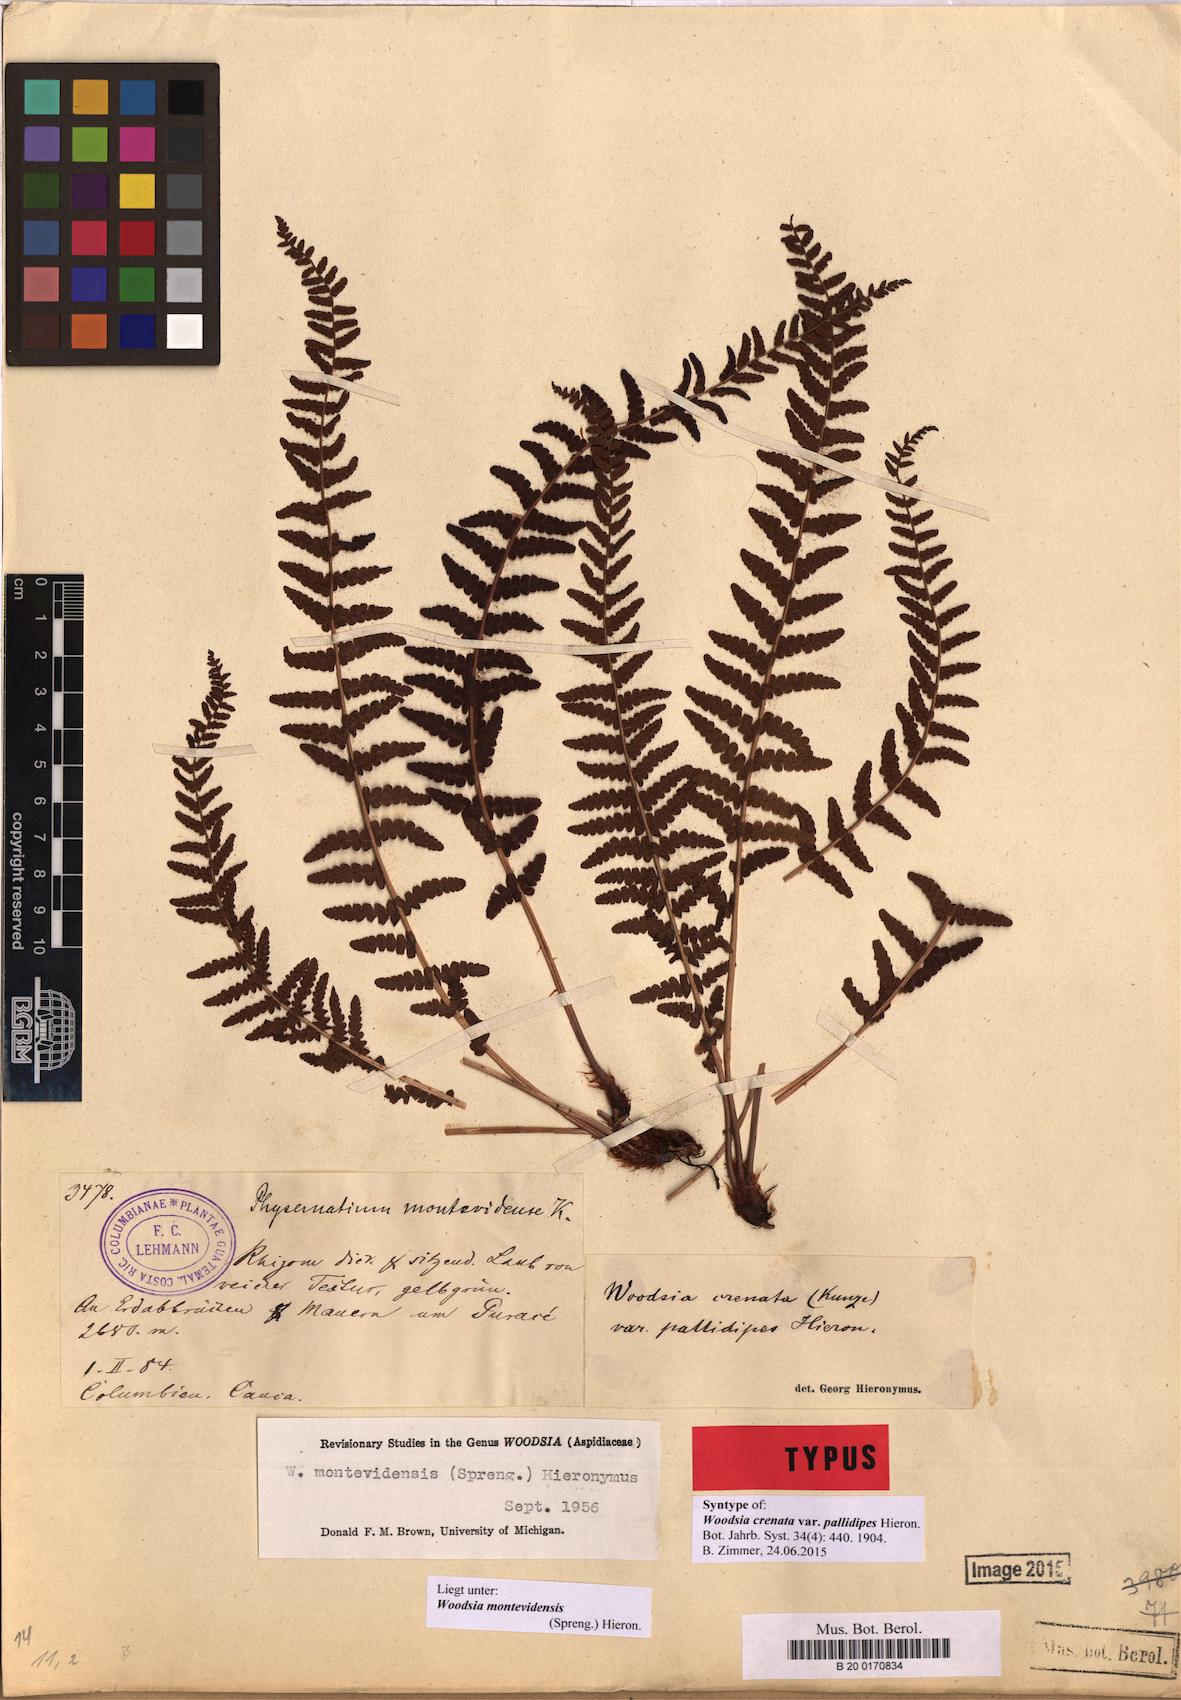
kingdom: Plantae
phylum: Tracheophyta
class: Polypodiopsida
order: Polypodiales
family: Woodsiaceae
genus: Physematium
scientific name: Physematium montevidense
